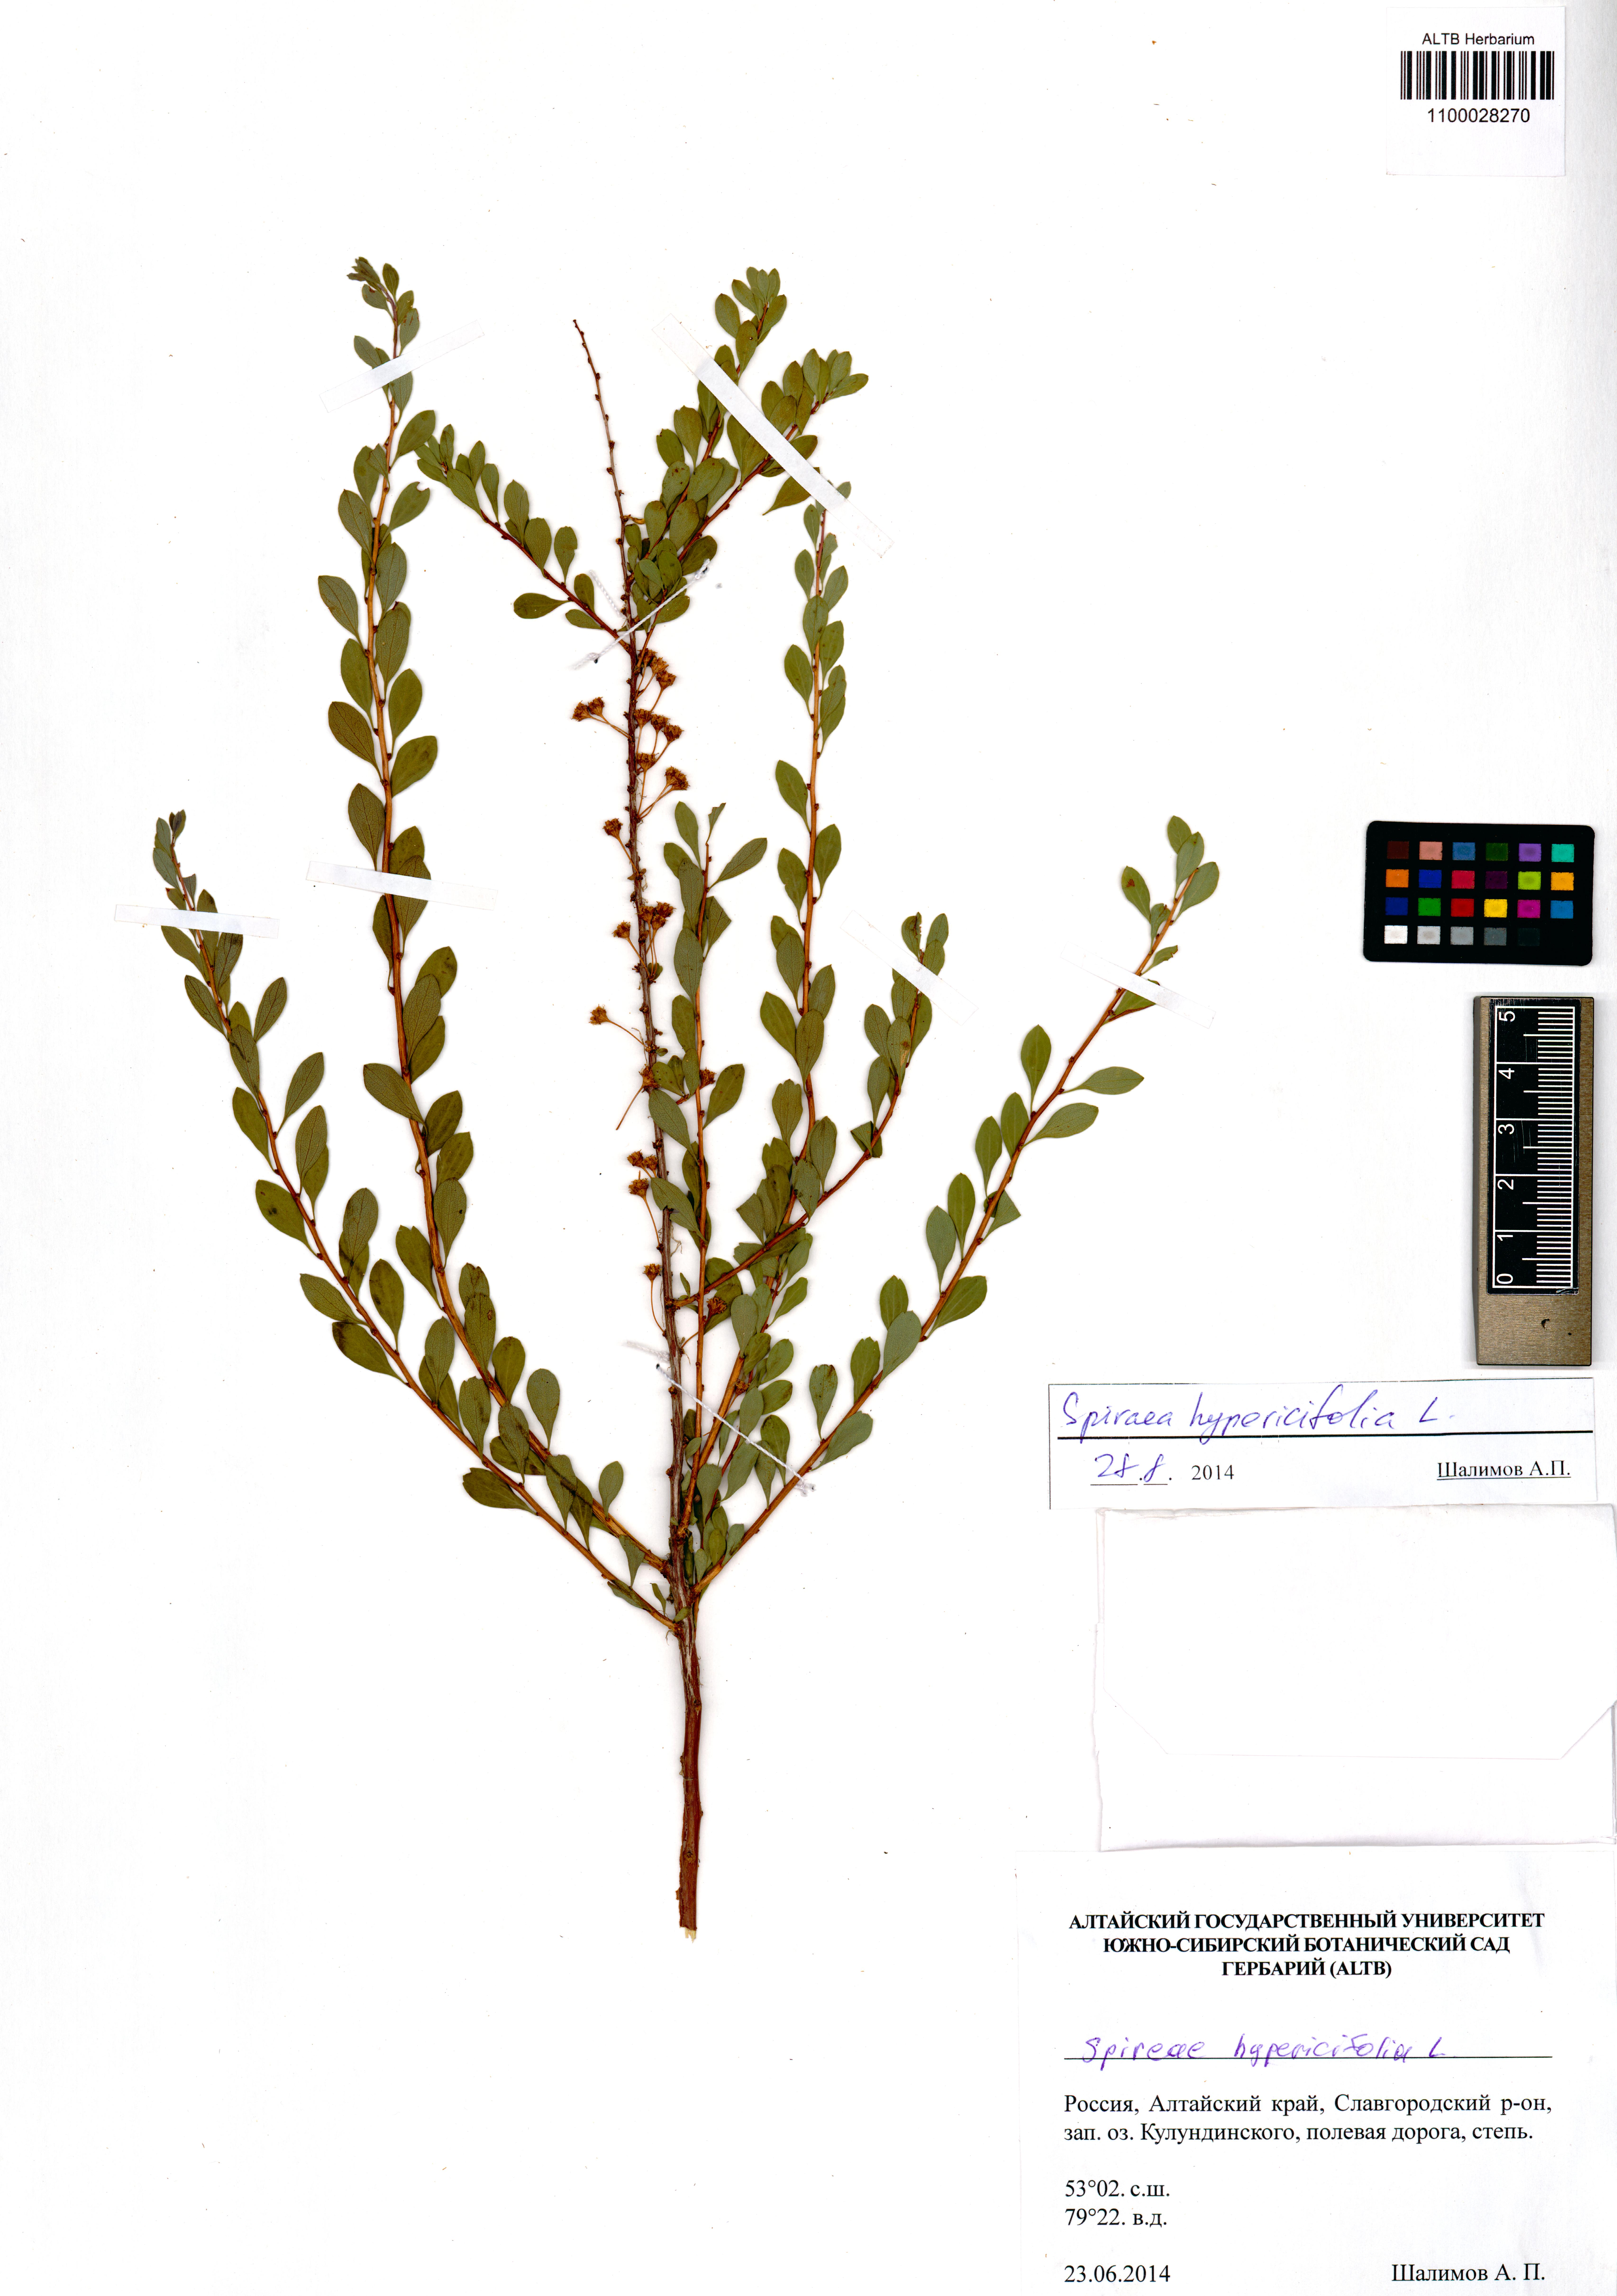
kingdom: Plantae
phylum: Tracheophyta
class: Magnoliopsida
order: Rosales
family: Rosaceae
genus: Spiraea
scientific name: Spiraea hypericifolia
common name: Iberian spirea
